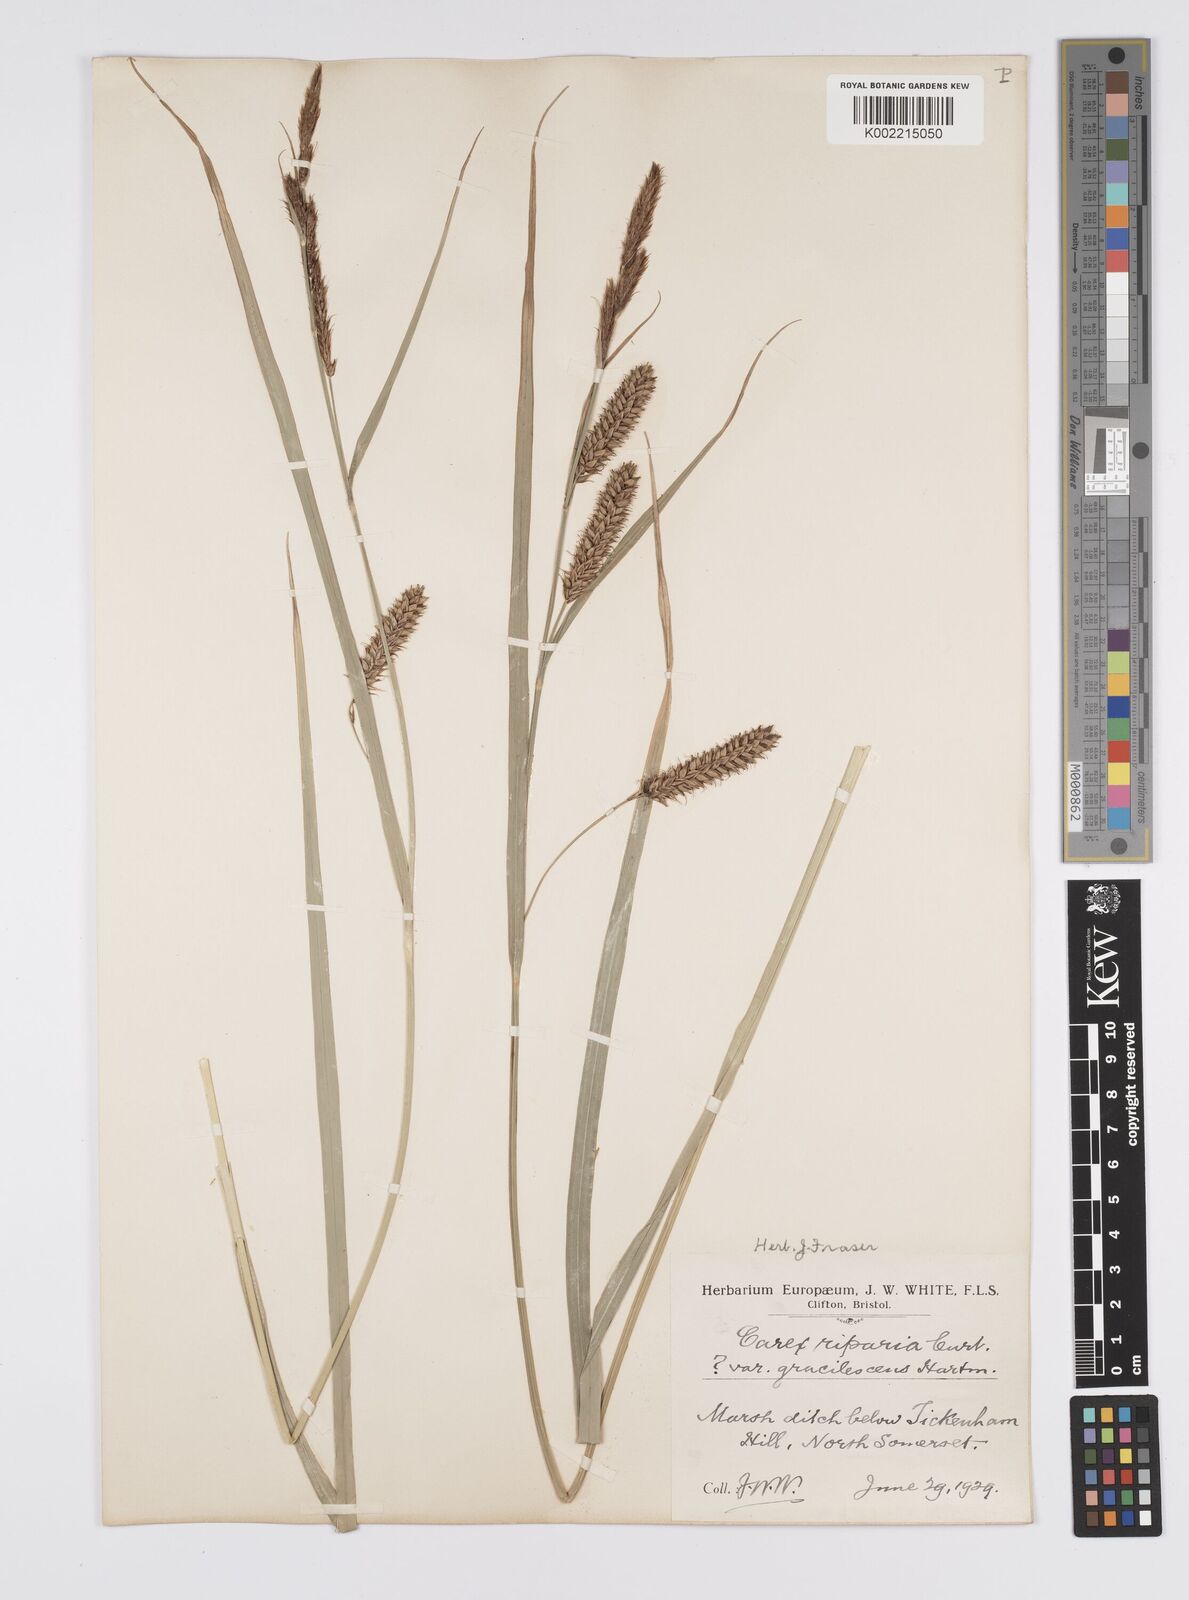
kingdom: Plantae
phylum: Tracheophyta
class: Liliopsida
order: Poales
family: Cyperaceae
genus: Carex
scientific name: Carex riparia
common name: Greater pond-sedge
